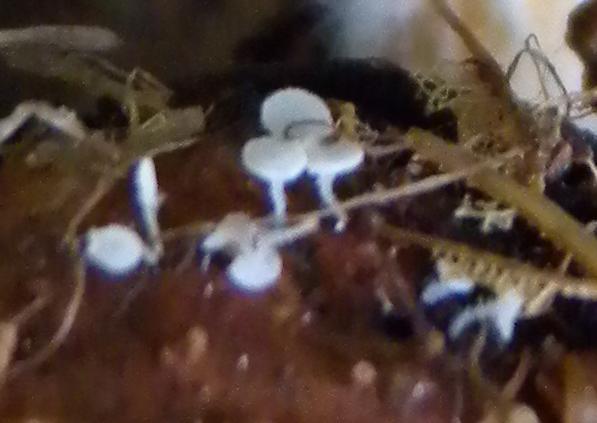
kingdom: Fungi
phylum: Ascomycota
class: Leotiomycetes
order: Helotiales
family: Lachnaceae
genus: Lachnum
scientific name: Lachnum virgineum
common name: jomfru-frynseskive
